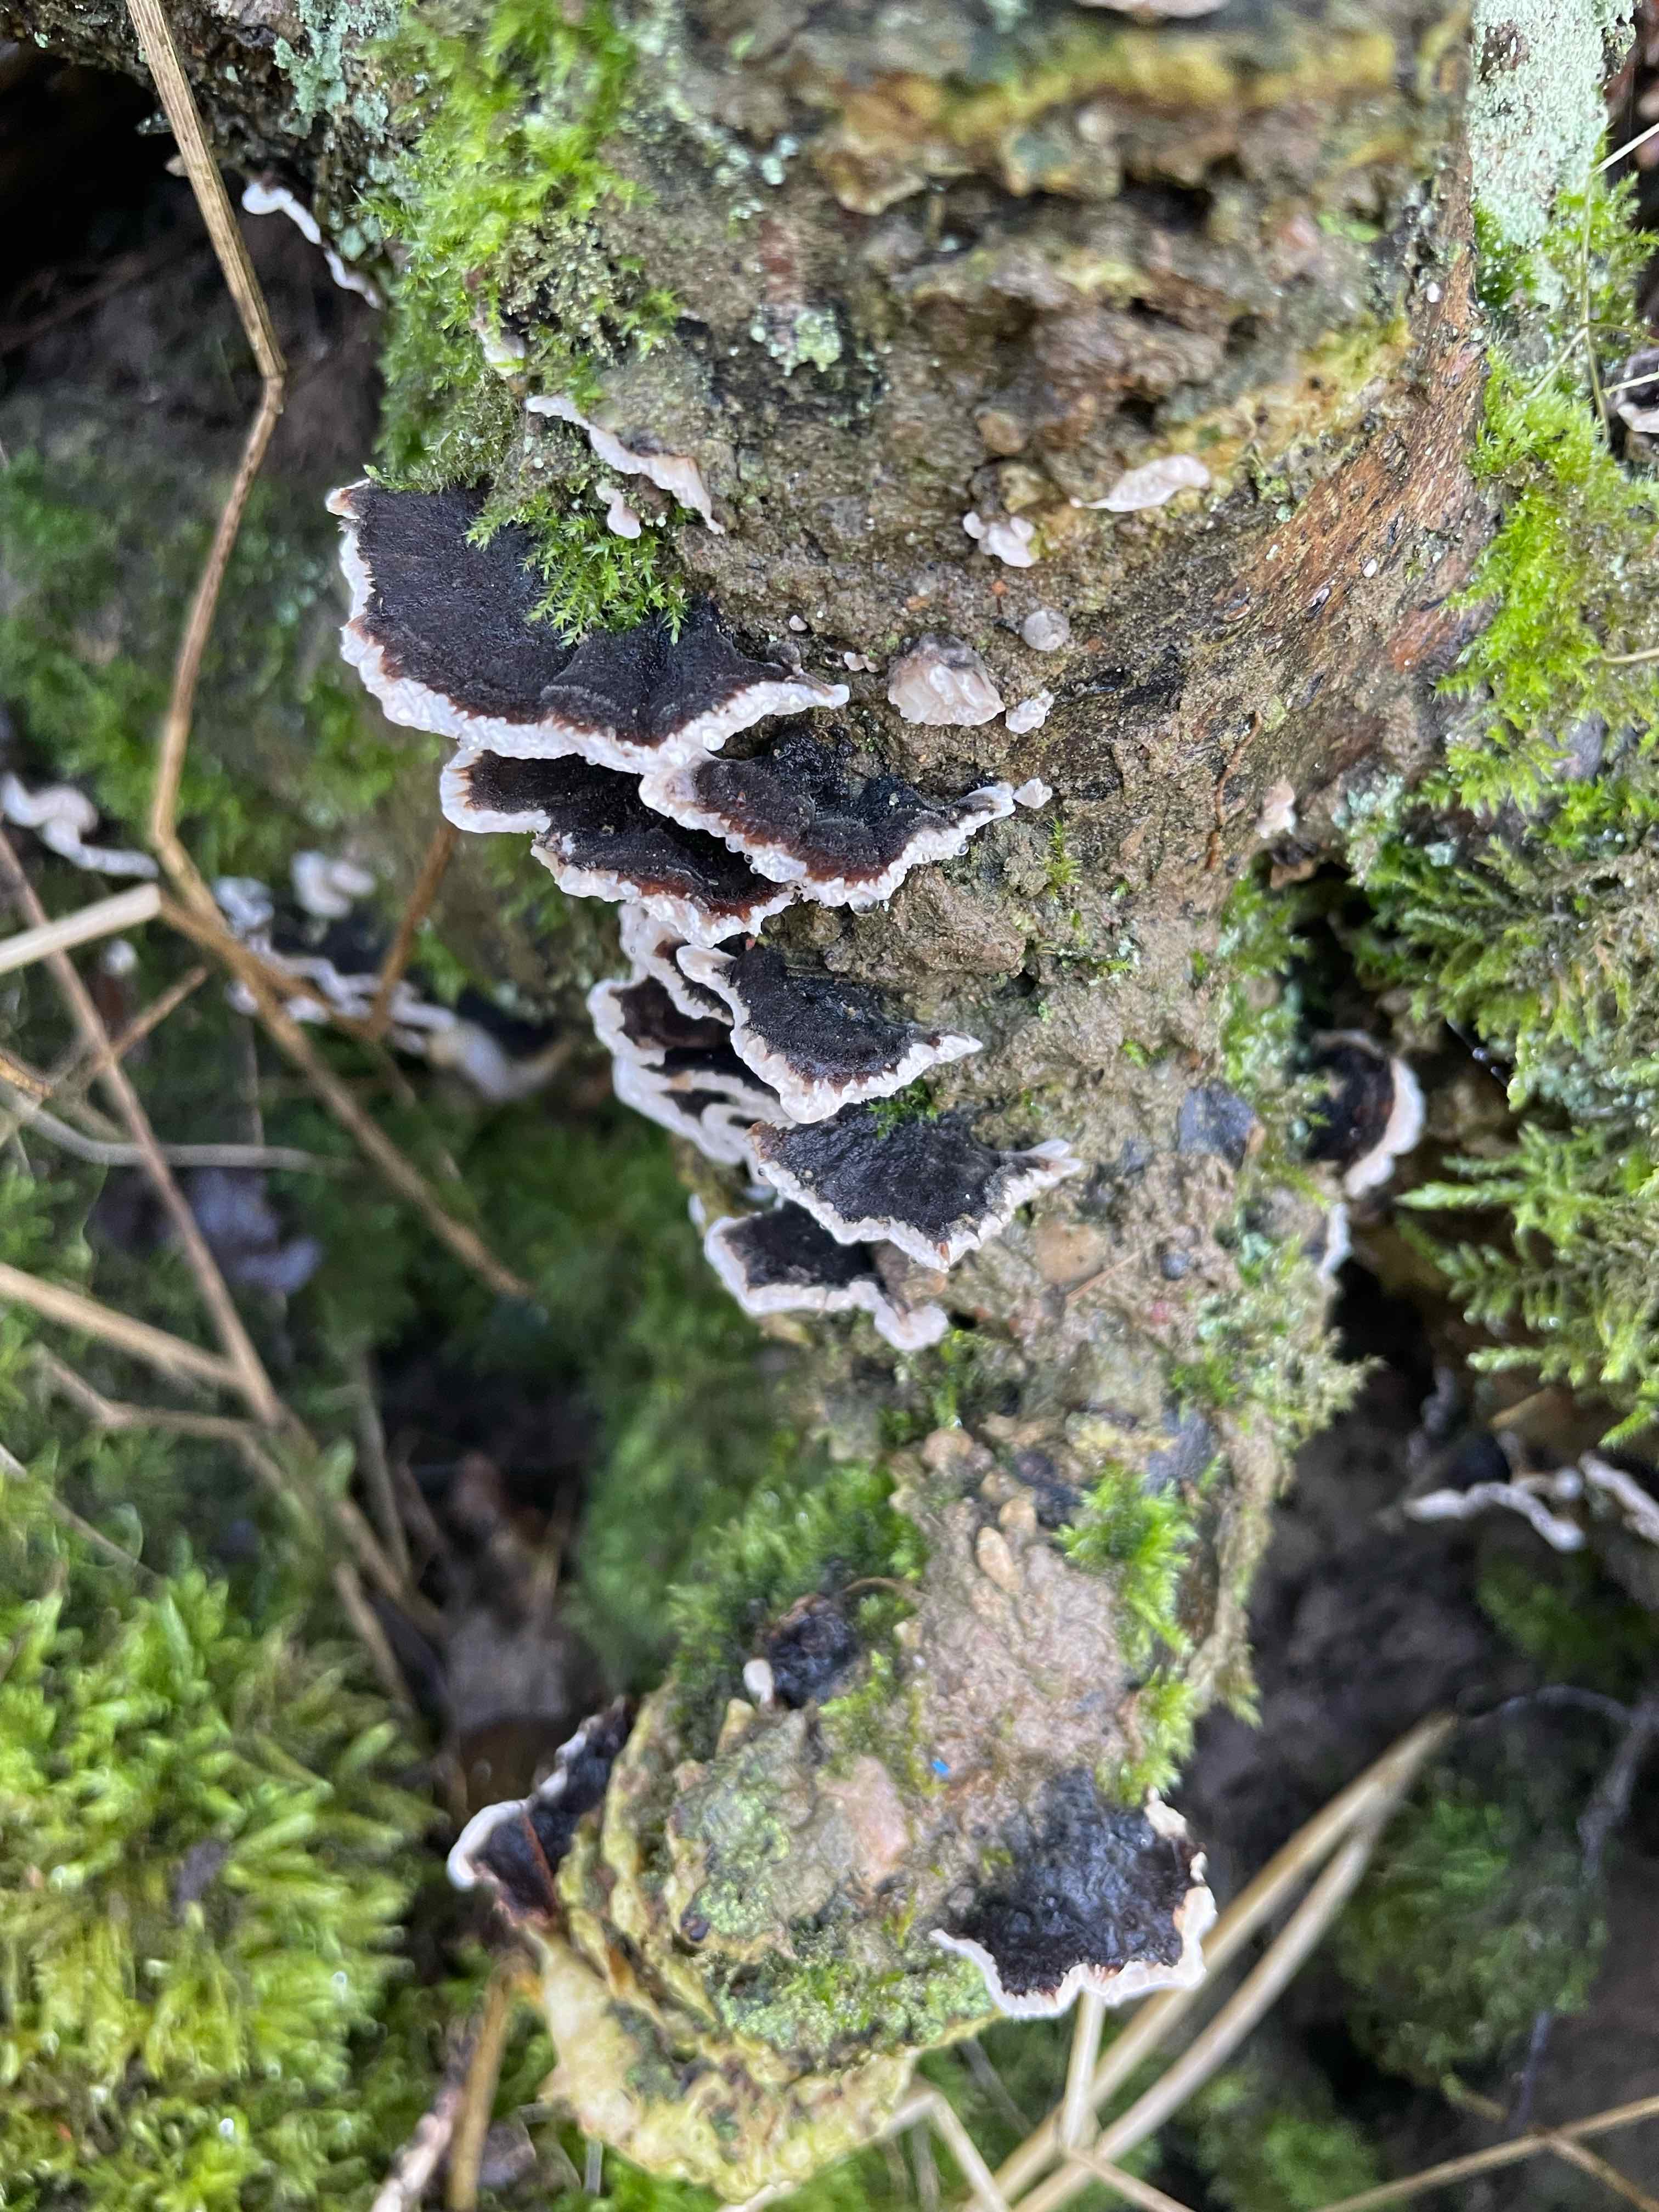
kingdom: Fungi
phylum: Basidiomycota
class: Agaricomycetes
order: Polyporales
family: Polyporaceae
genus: Trametes
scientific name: Trametes versicolor
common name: broget læderporesvamp
